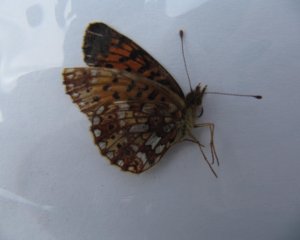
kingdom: Animalia
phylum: Arthropoda
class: Insecta
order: Lepidoptera
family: Nymphalidae
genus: Boloria
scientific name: Boloria selene
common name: Silver-bordered Fritillary
